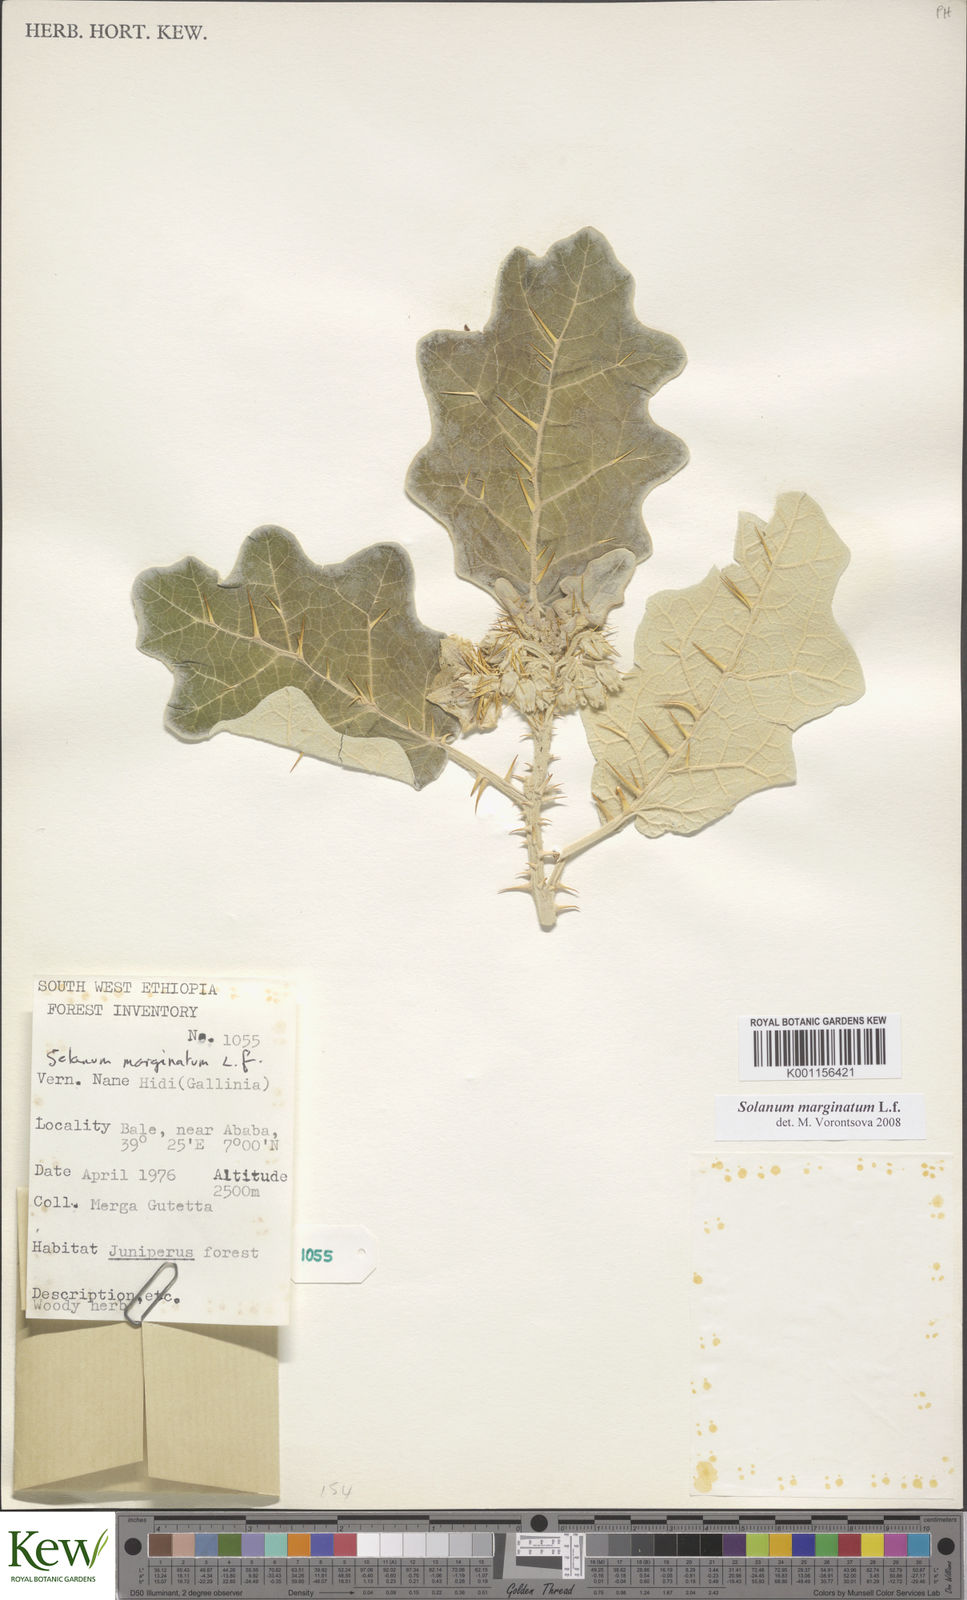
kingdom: Plantae
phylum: Tracheophyta
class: Magnoliopsida
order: Solanales
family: Solanaceae
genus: Solanum
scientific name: Solanum marginatum
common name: Purple african nightshade
